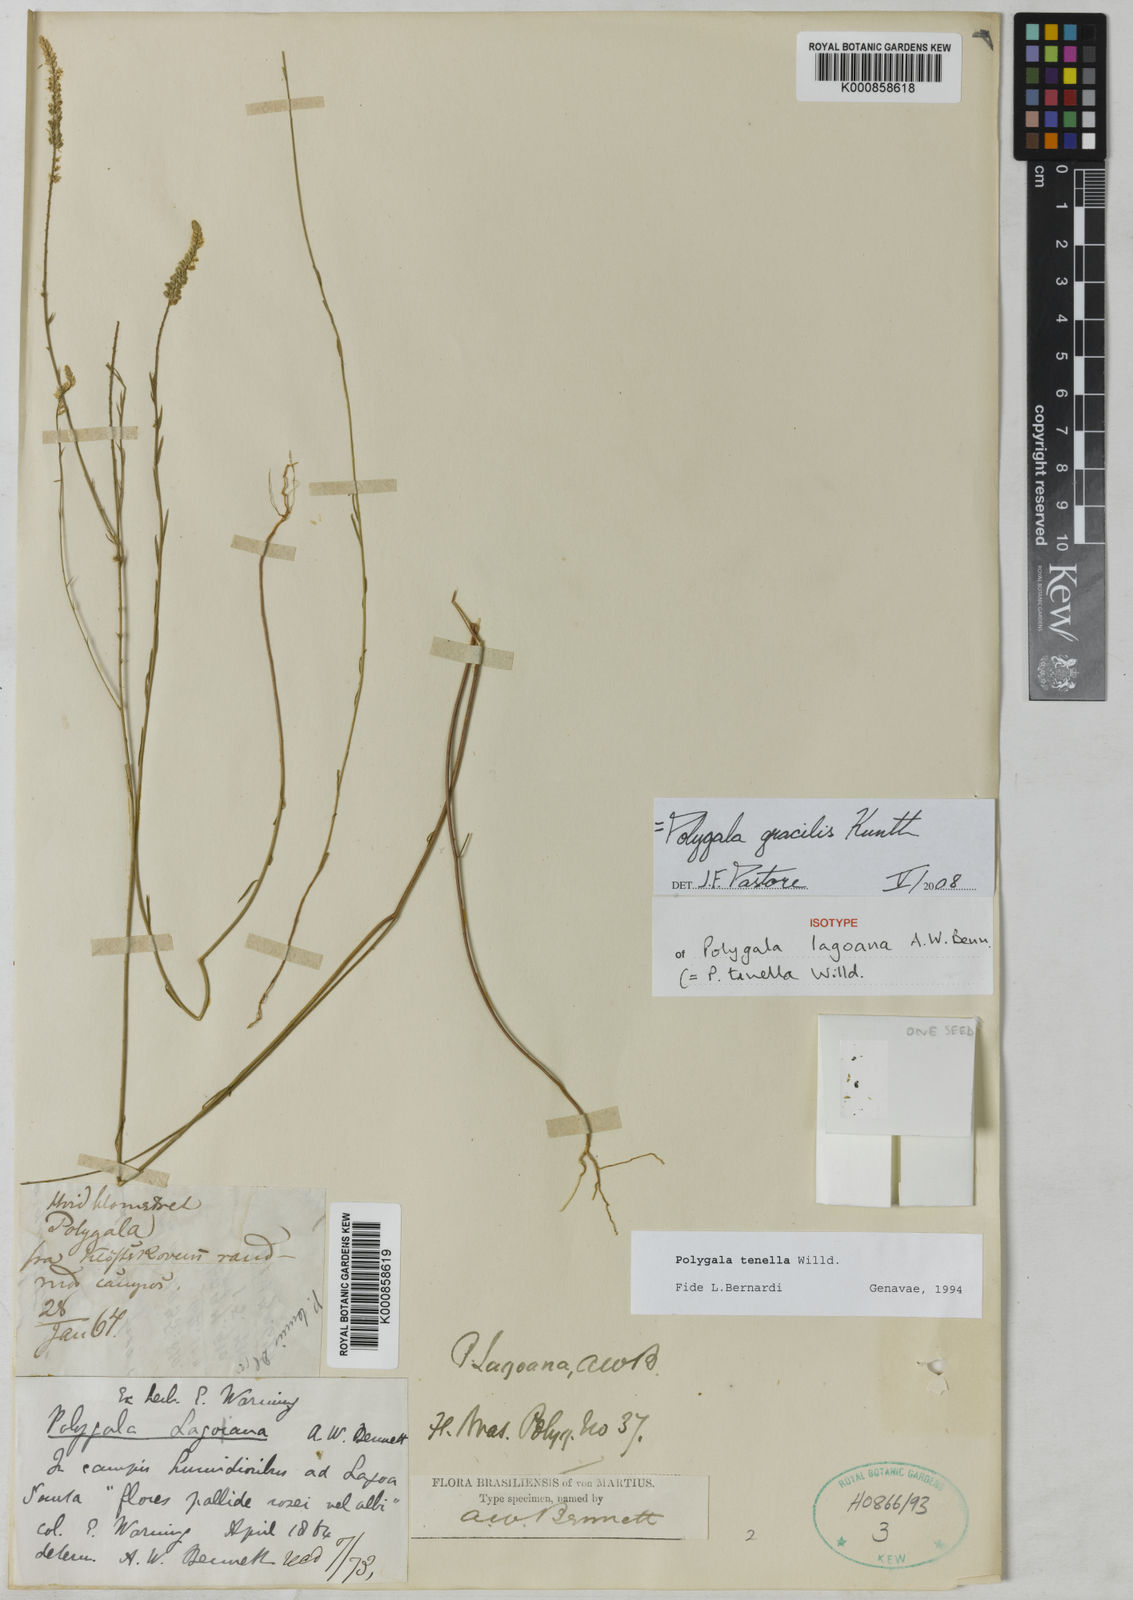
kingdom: Plantae
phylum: Tracheophyta
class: Magnoliopsida
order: Fabales
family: Polygalaceae
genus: Polygala
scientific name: Polygala gracilis
